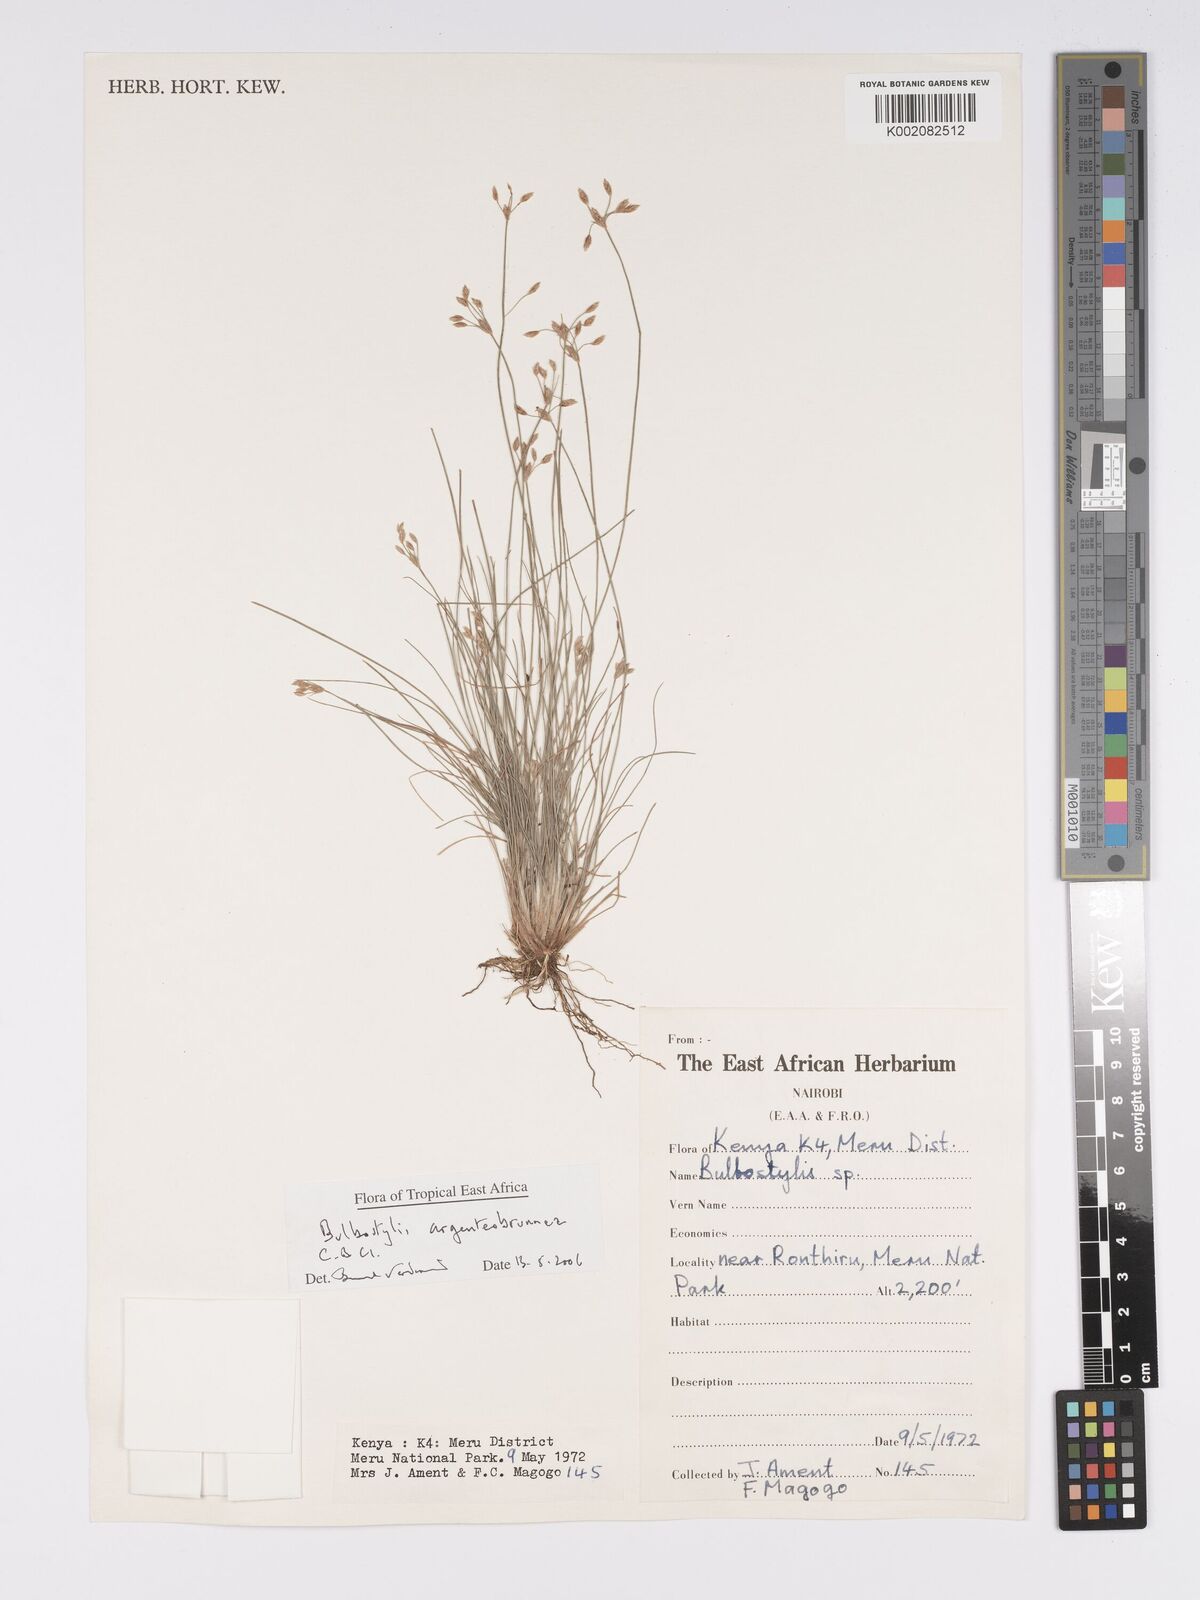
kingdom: Plantae
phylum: Tracheophyta
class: Liliopsida
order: Poales
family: Cyperaceae
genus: Bulbostylis
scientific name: Bulbostylis argenteobrunea
